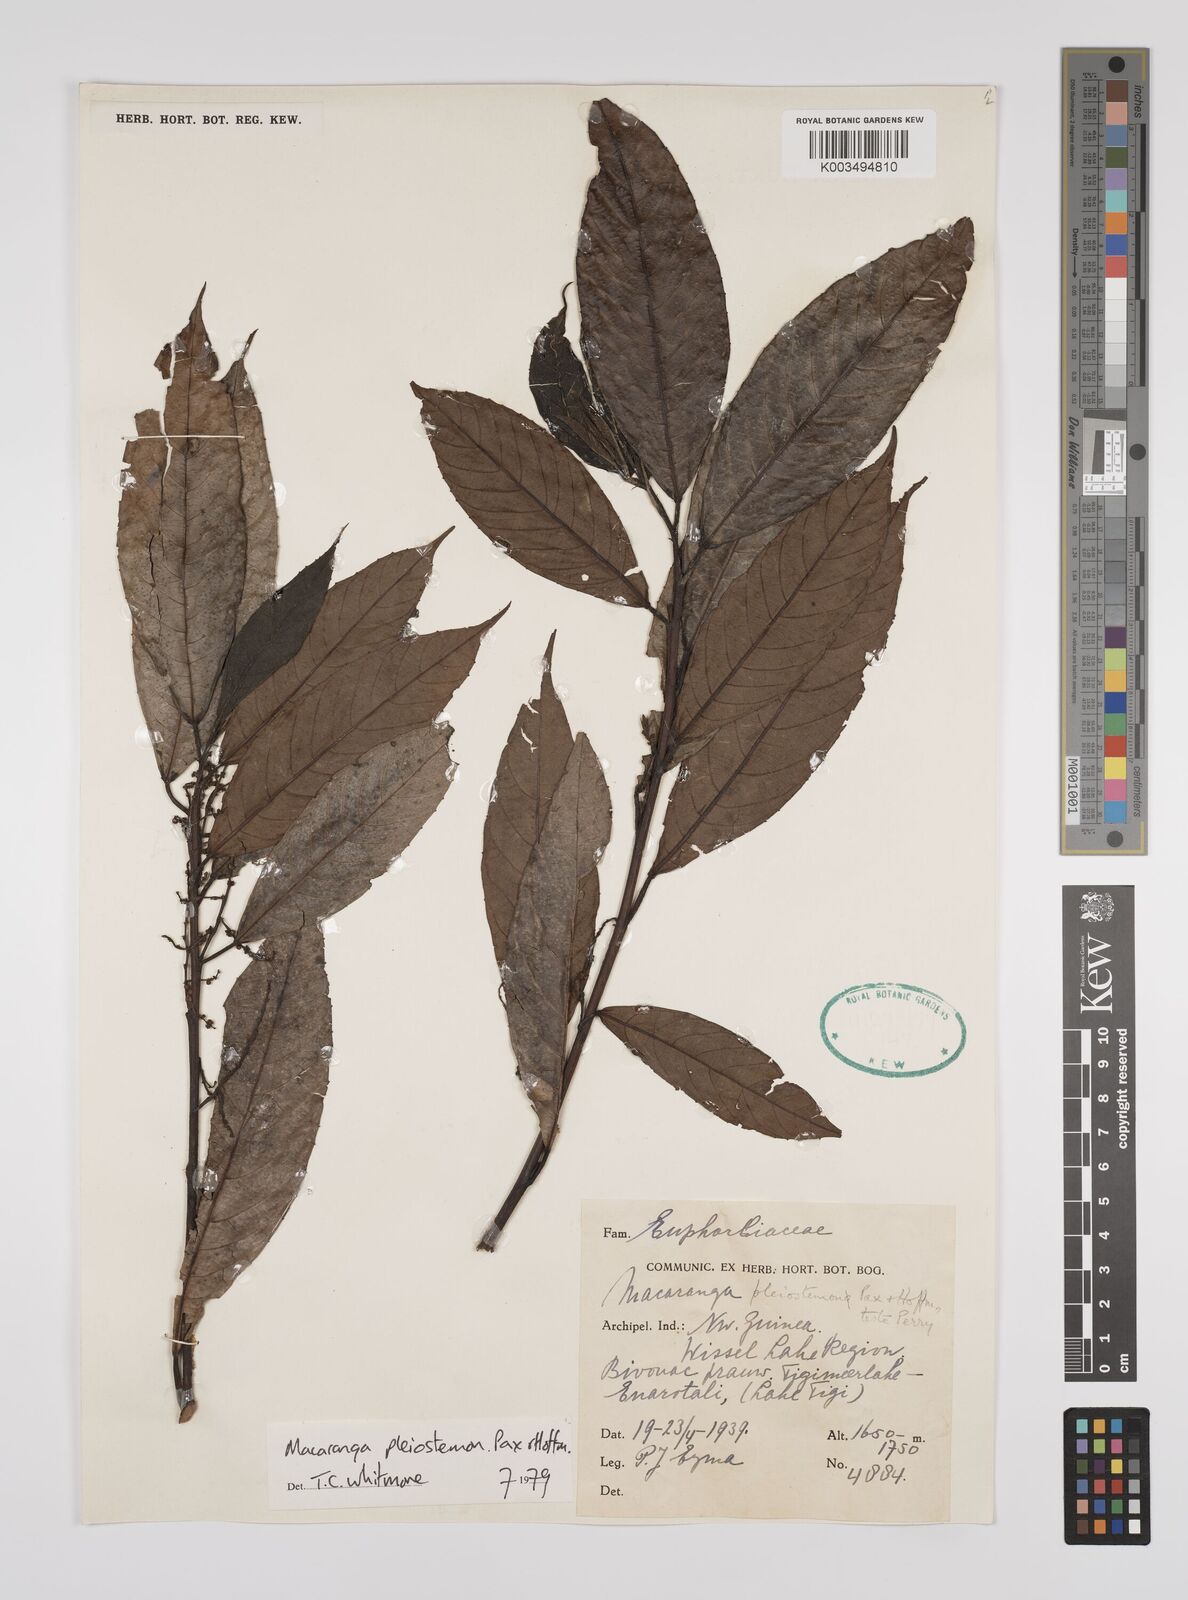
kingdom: Plantae
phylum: Tracheophyta
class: Magnoliopsida
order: Malpighiales
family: Euphorbiaceae
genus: Macaranga
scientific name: Macaranga pleiostemon
